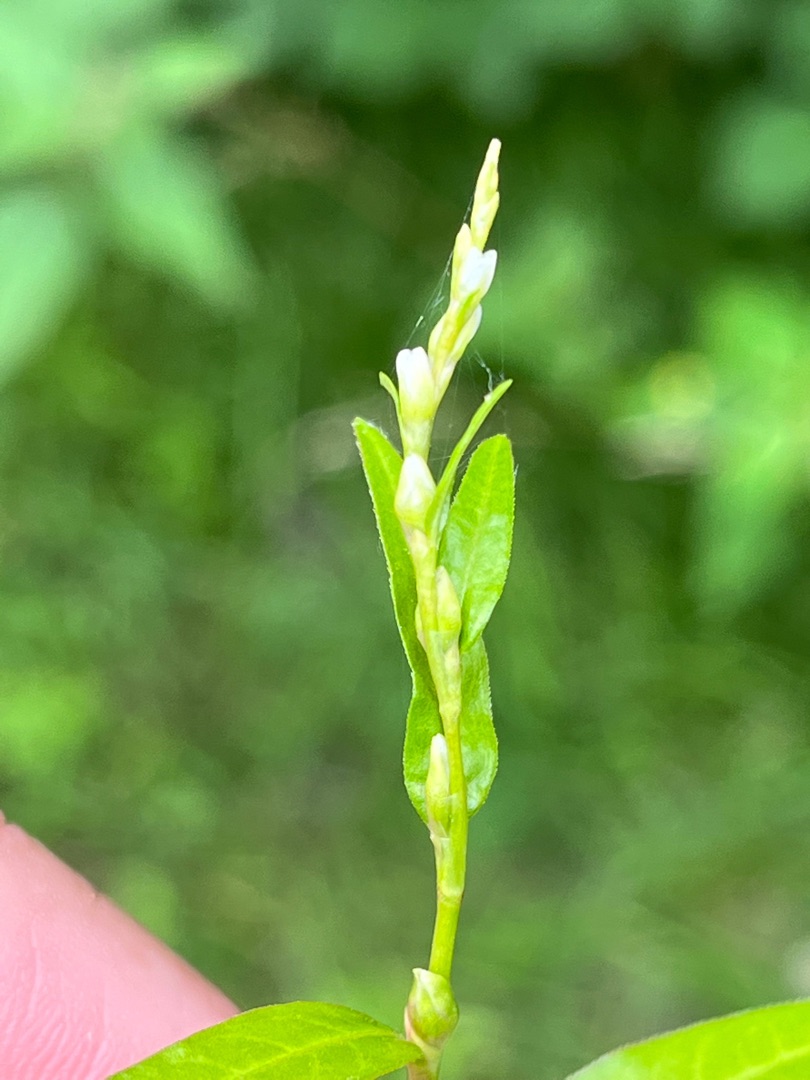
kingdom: Plantae
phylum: Tracheophyta
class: Magnoliopsida
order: Caryophyllales
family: Polygonaceae
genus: Persicaria
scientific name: Persicaria hydropiper
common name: Bidende pileurt
